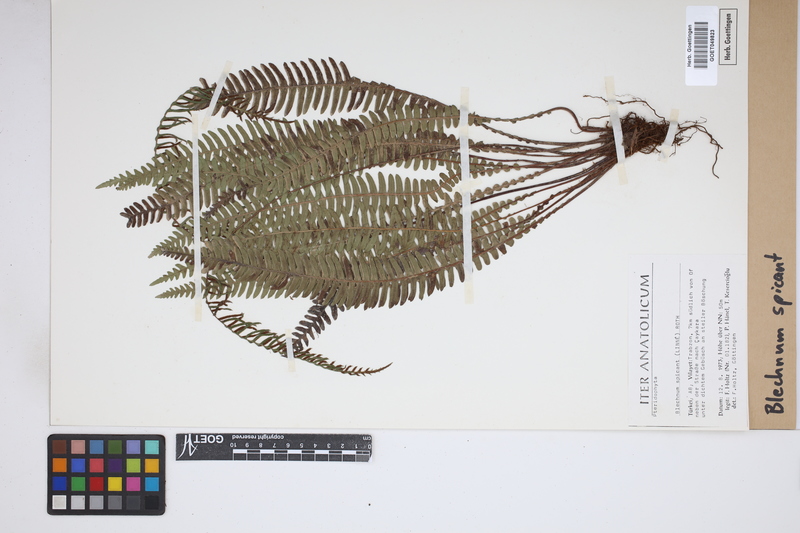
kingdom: Plantae
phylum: Tracheophyta
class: Polypodiopsida
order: Polypodiales
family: Blechnaceae
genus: Struthiopteris
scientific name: Struthiopteris spicant
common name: Deer fern
